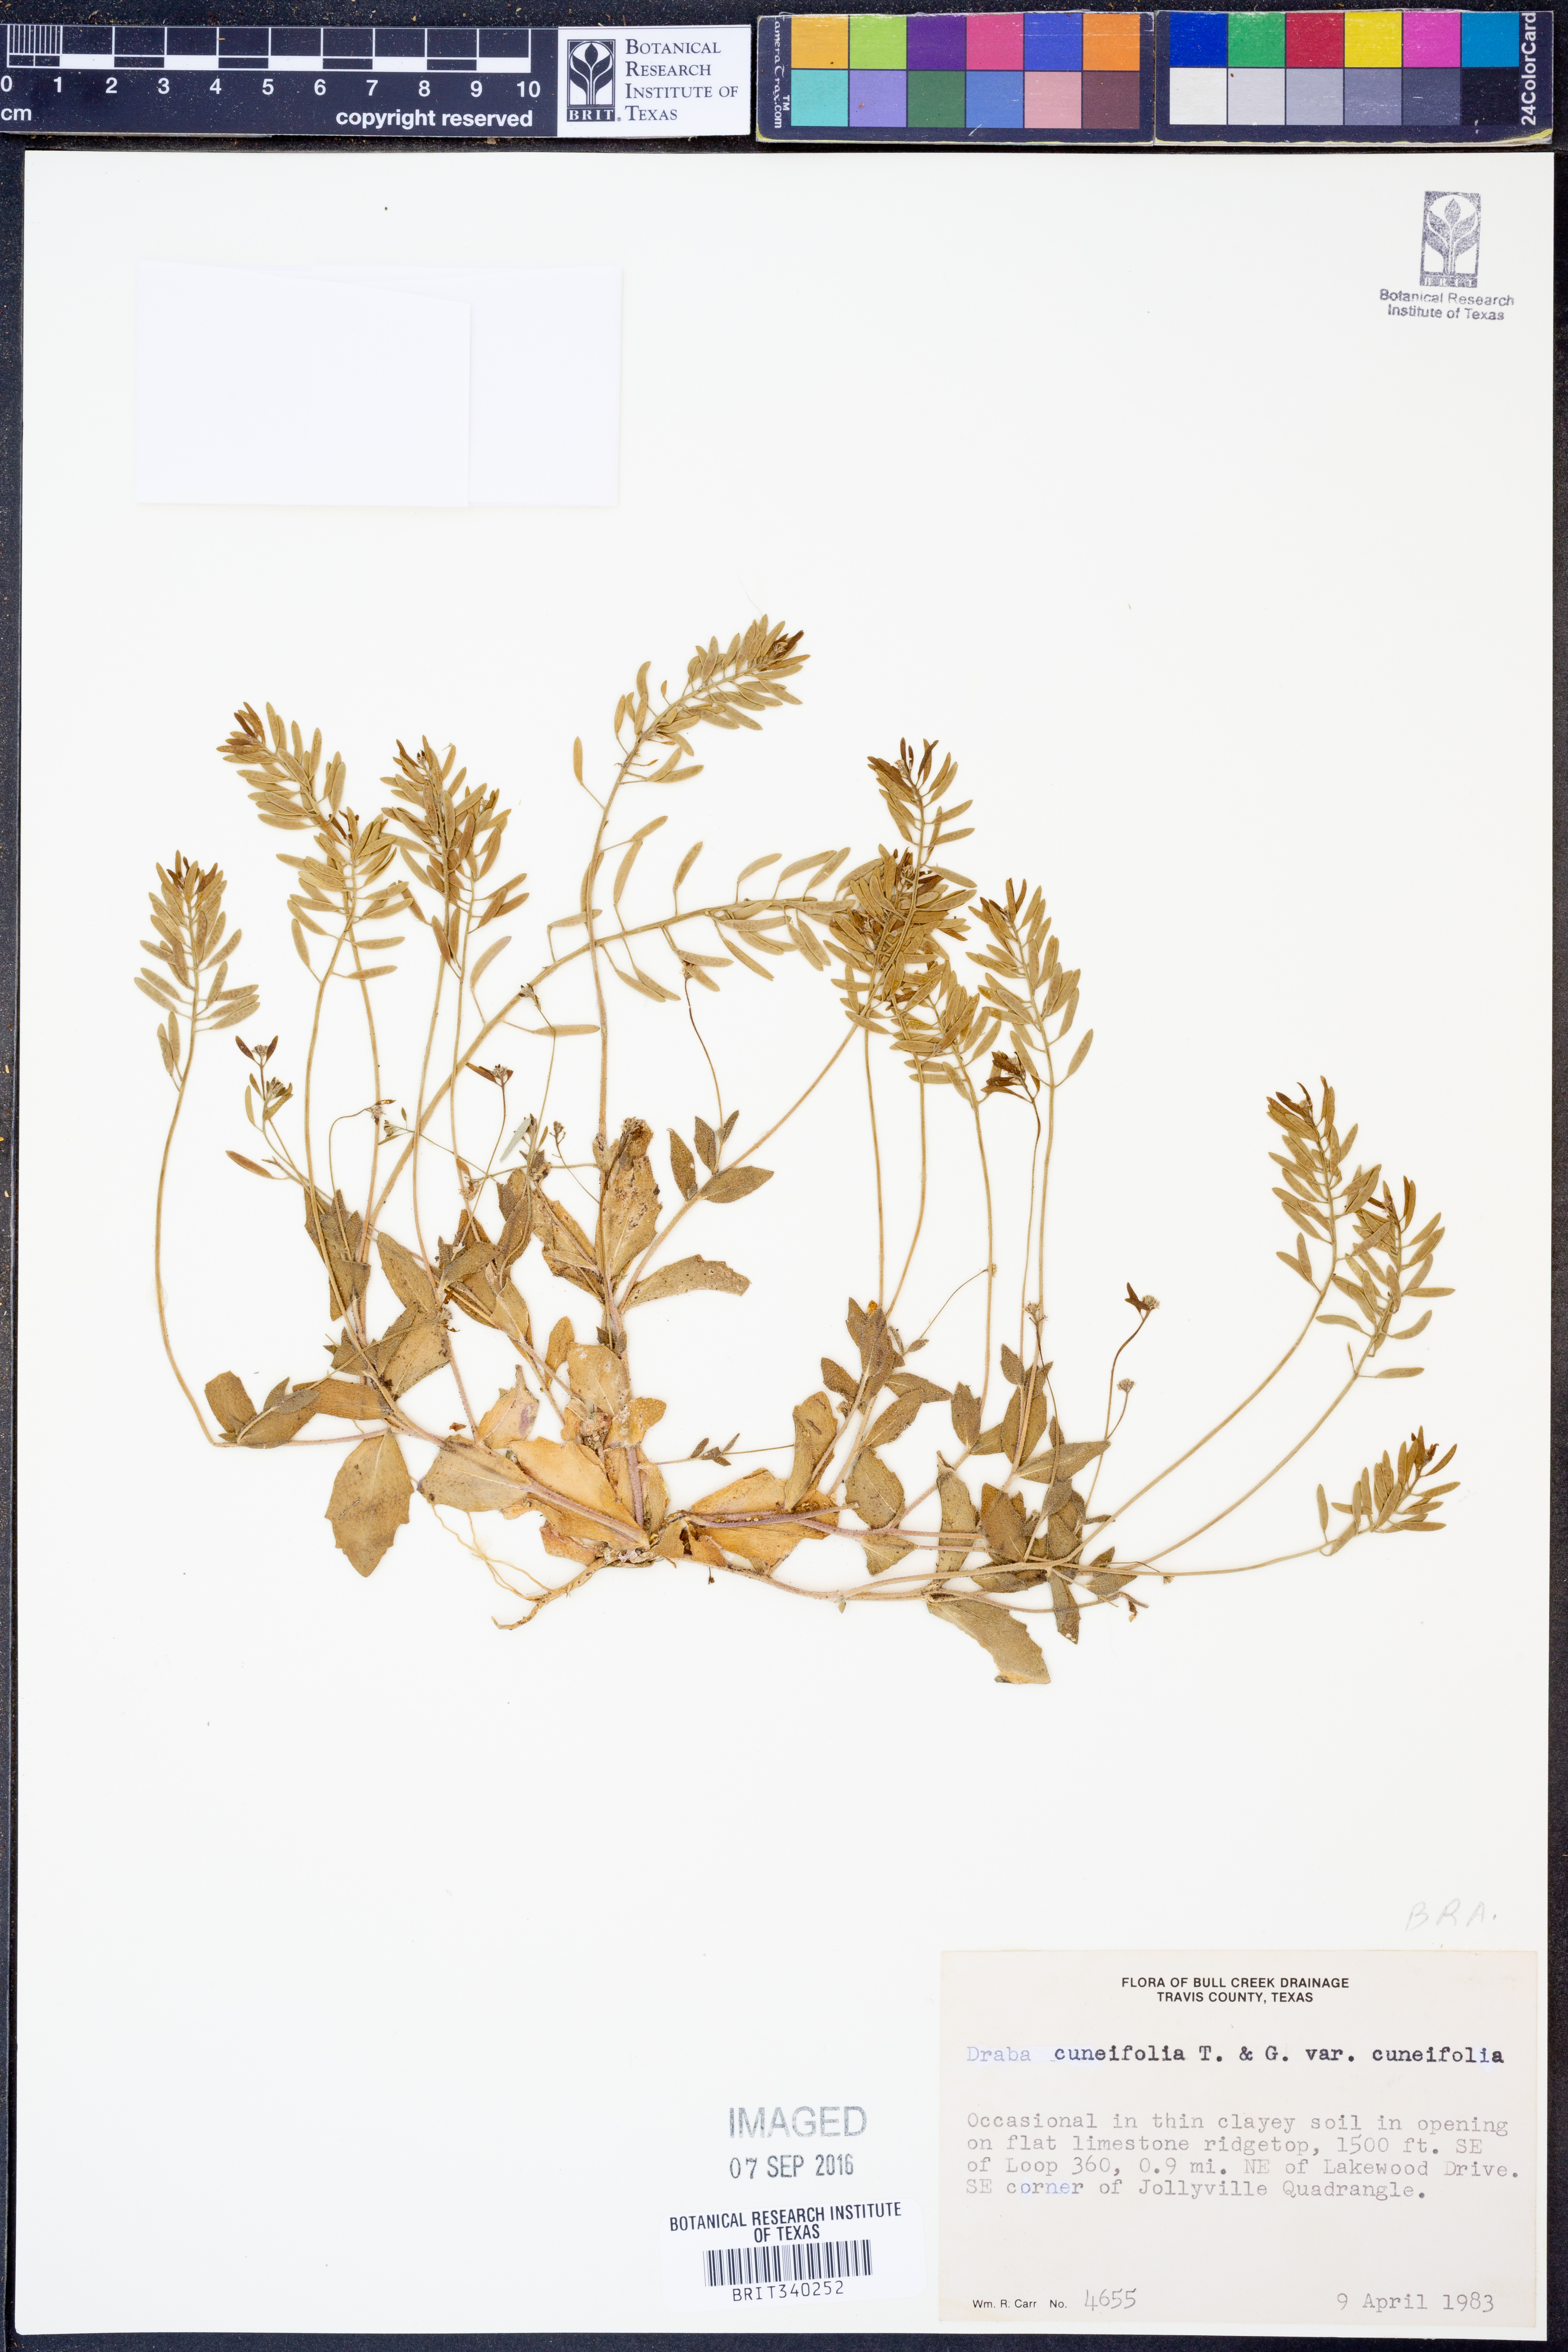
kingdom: Plantae
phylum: Tracheophyta
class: Magnoliopsida
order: Brassicales
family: Brassicaceae
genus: Tomostima
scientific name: Tomostima cuneifolia
